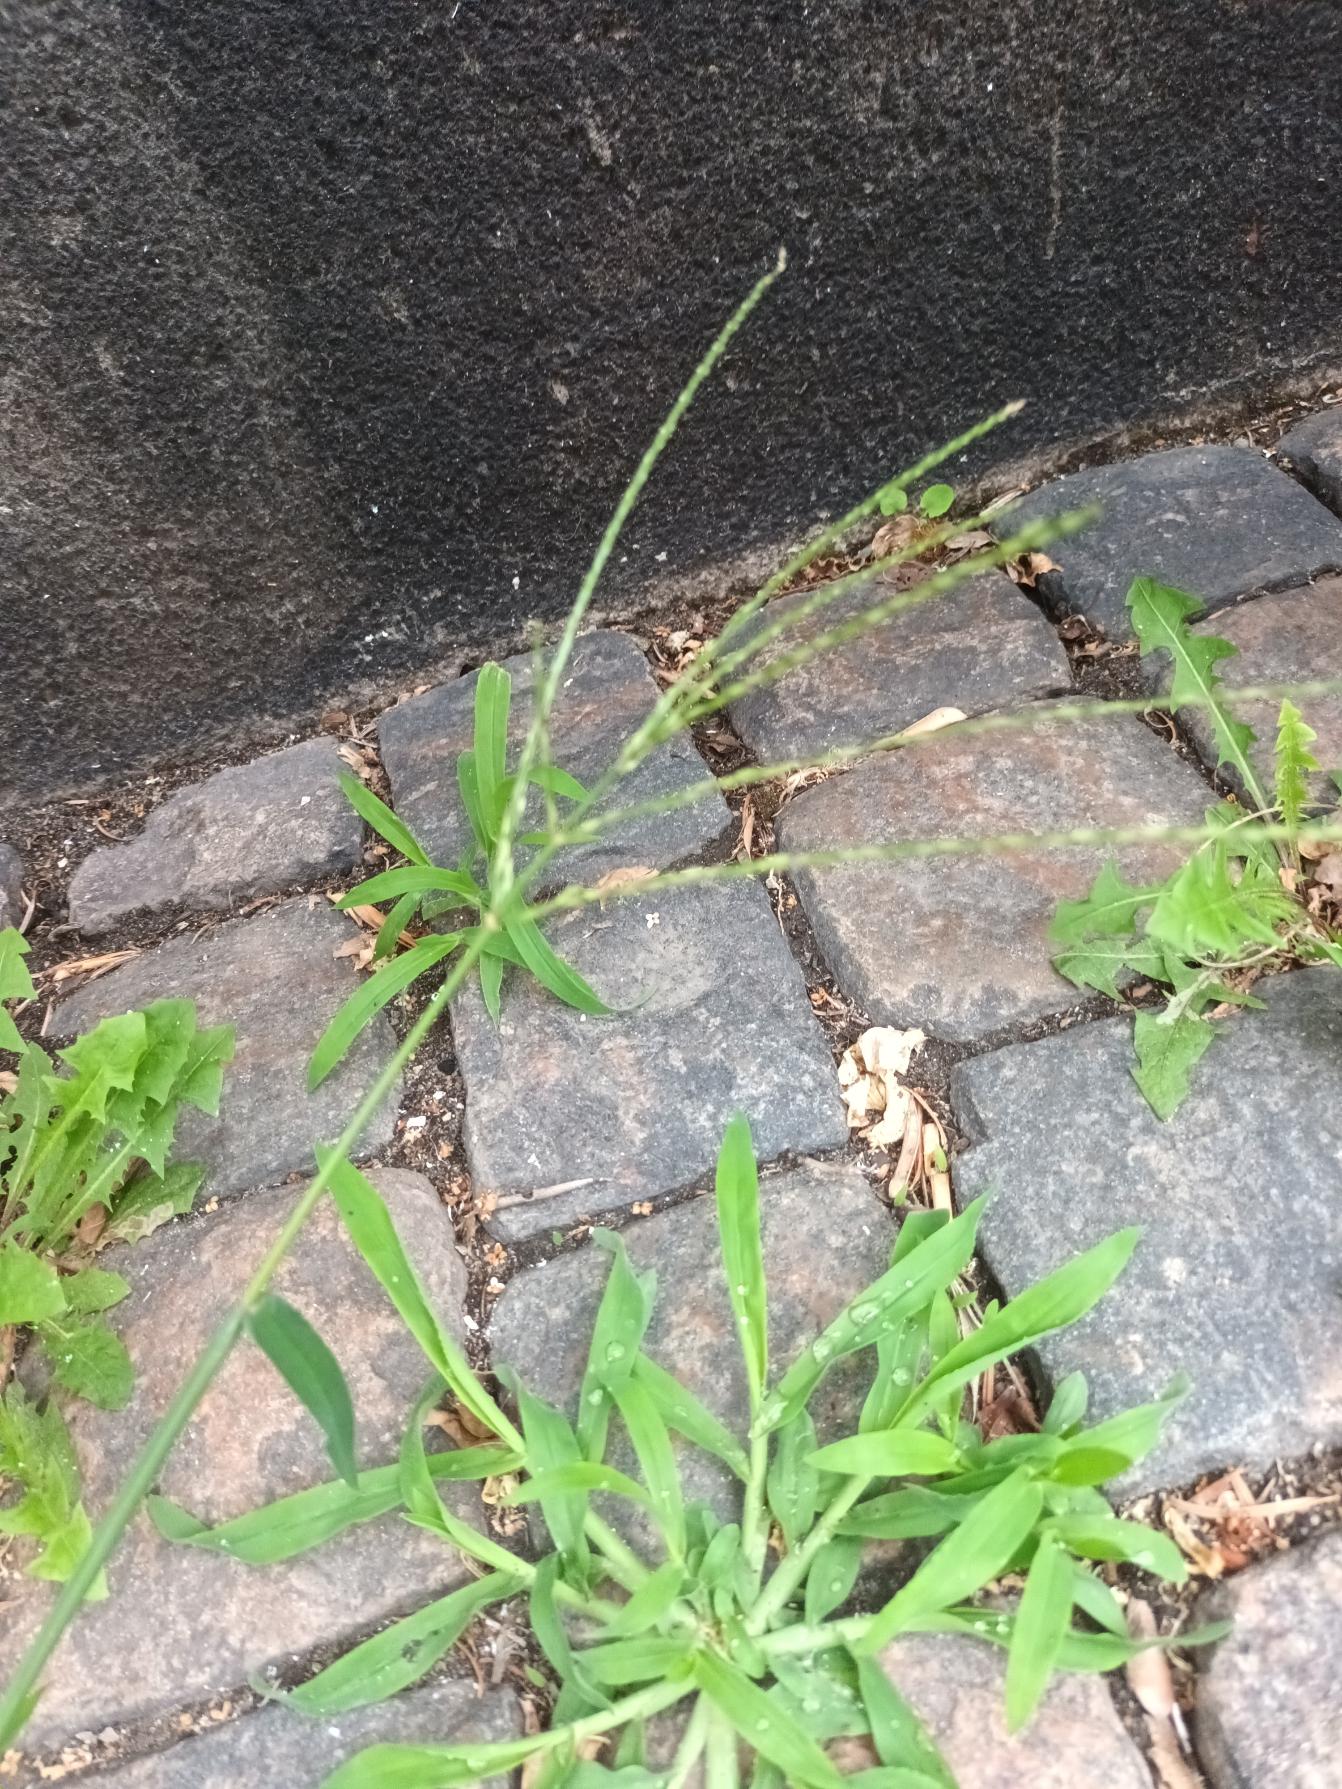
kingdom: Plantae
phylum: Tracheophyta
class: Liliopsida
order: Poales
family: Poaceae
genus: Digitaria
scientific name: Digitaria sanguinalis
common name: Blodhirse
